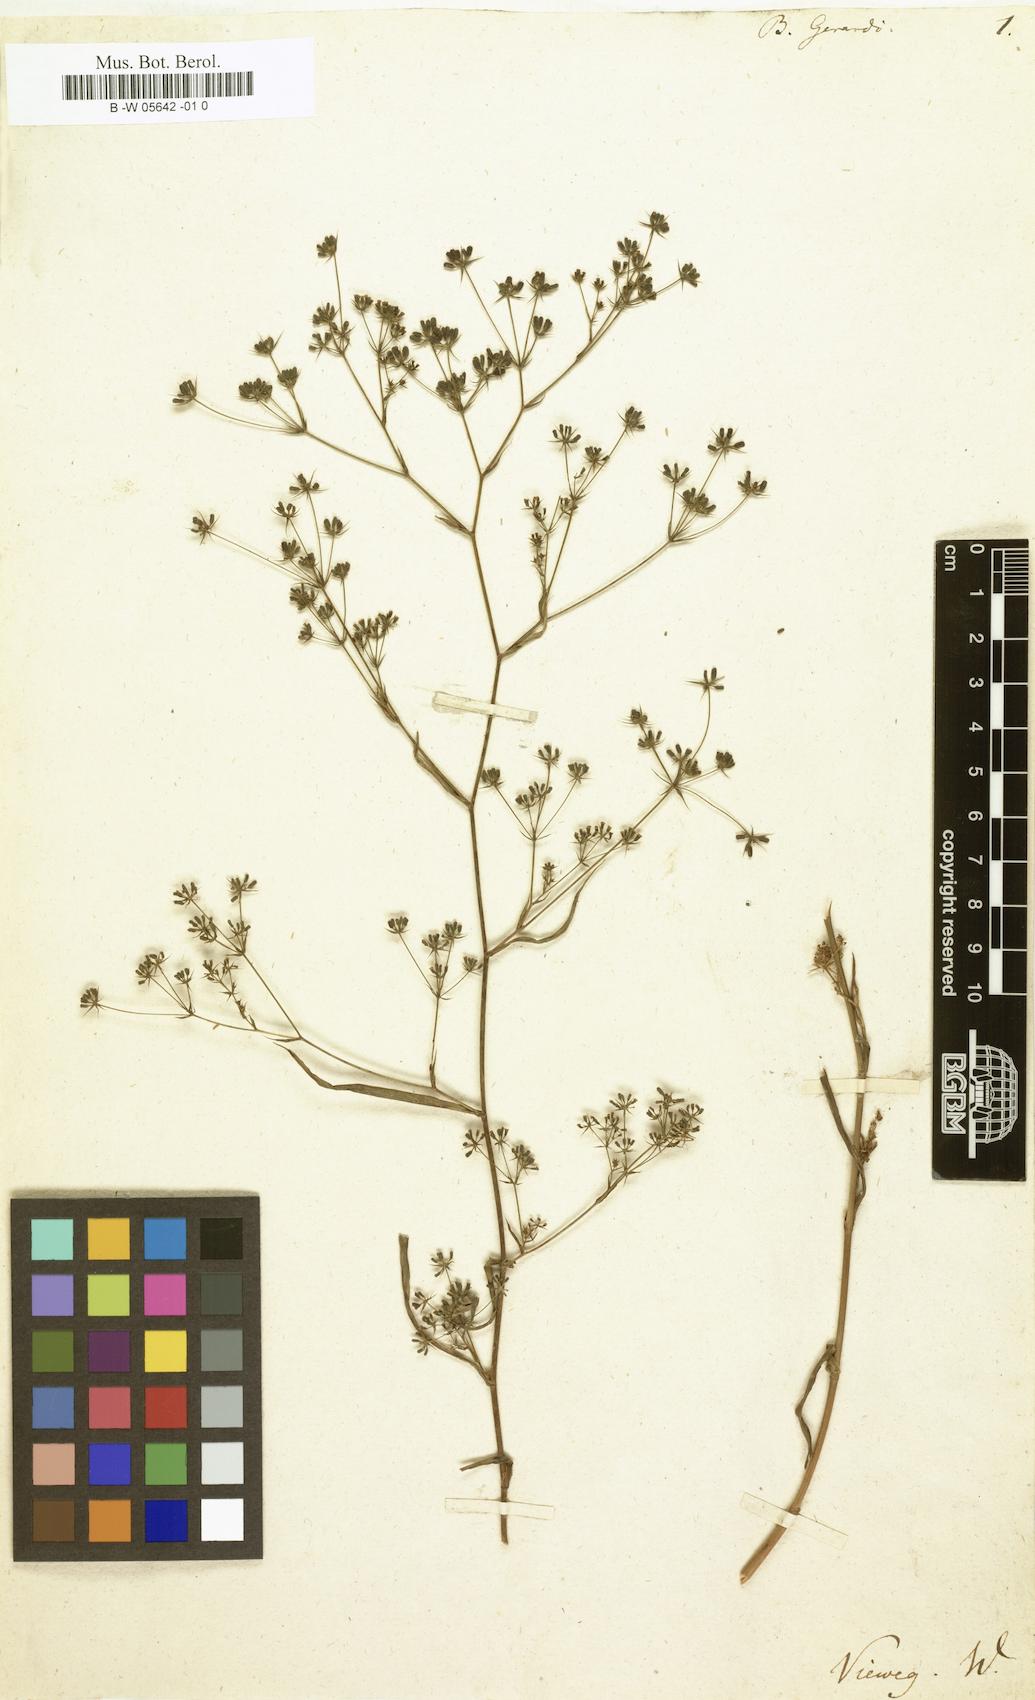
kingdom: Plantae
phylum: Tracheophyta
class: Magnoliopsida
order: Apiales
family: Apiaceae
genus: Bupleurum
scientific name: Bupleurum gerardi
